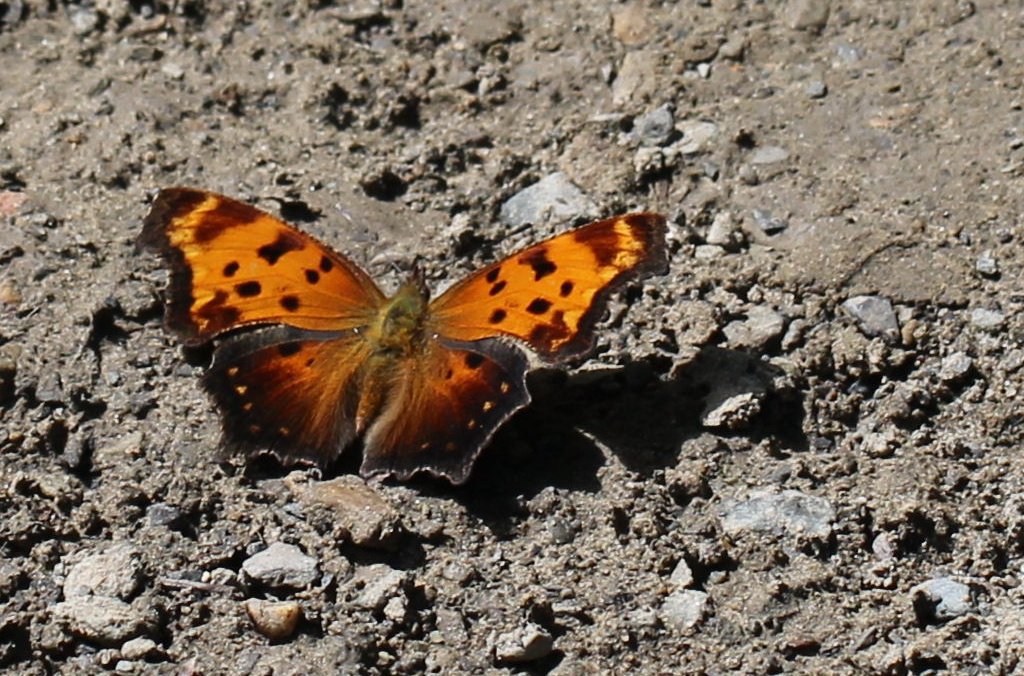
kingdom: Animalia
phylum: Arthropoda
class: Insecta
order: Lepidoptera
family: Nymphalidae
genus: Polygonia
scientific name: Polygonia progne
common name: Gray Comma
